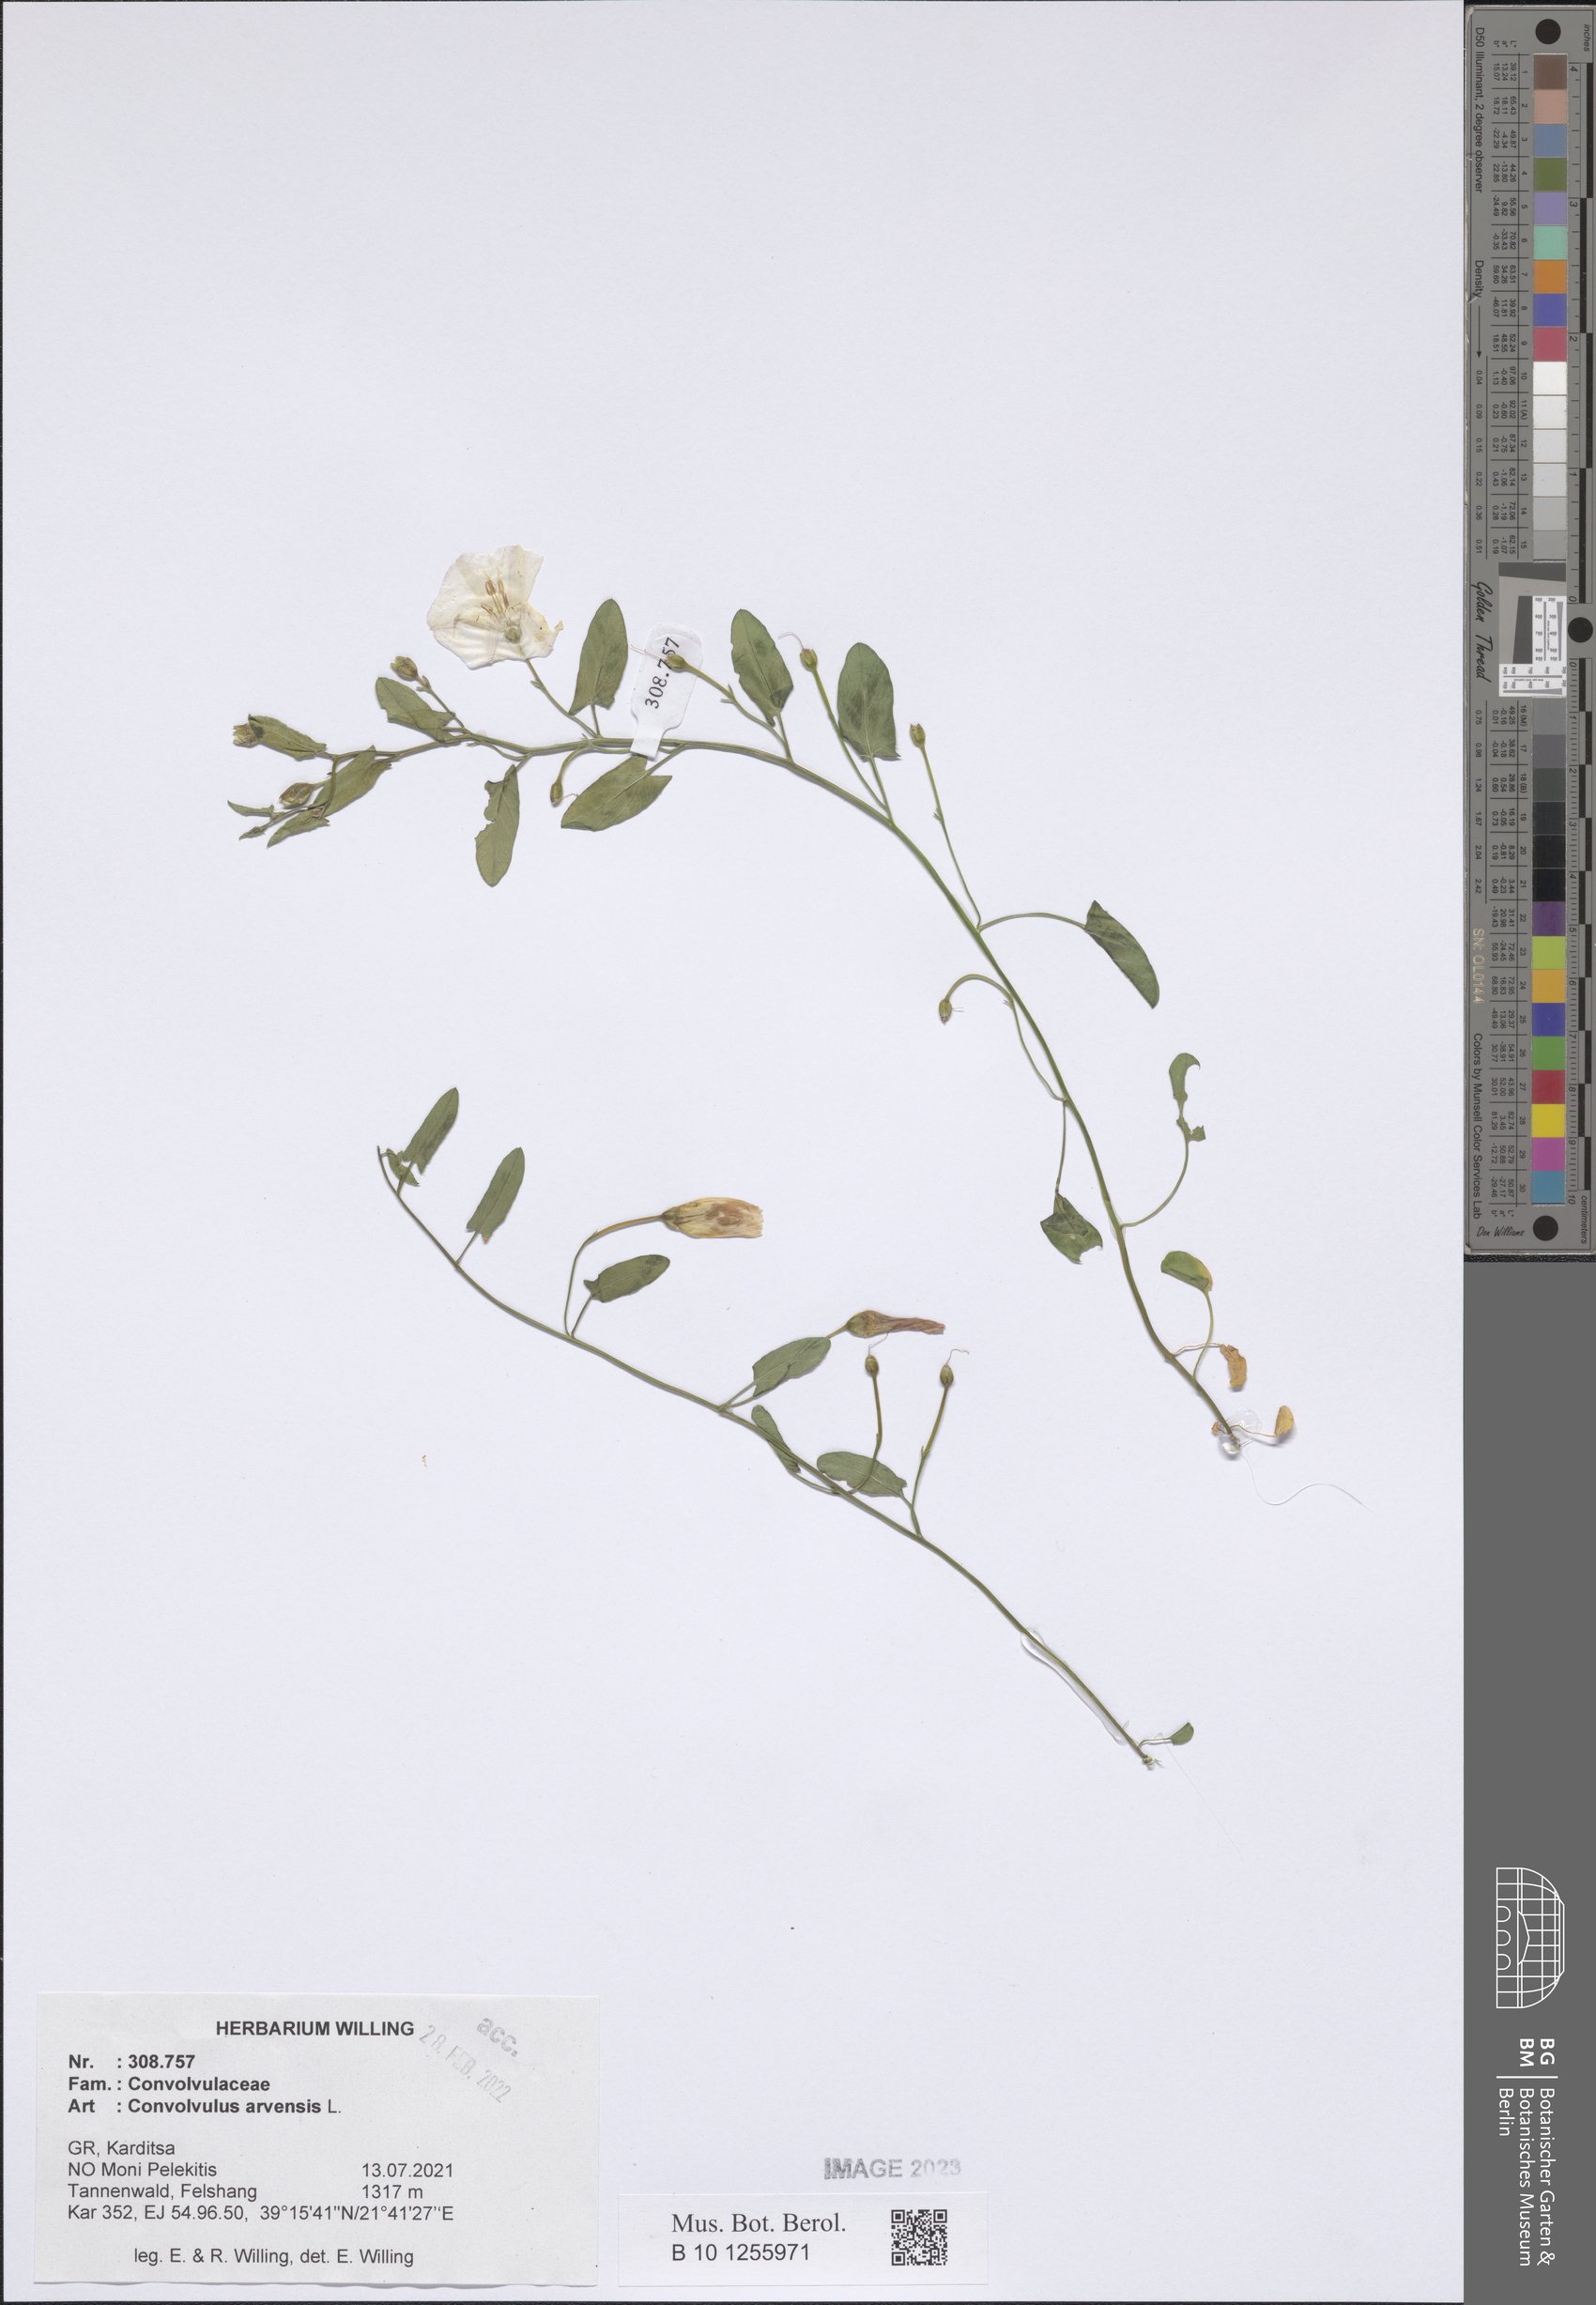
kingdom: Plantae
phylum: Tracheophyta
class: Magnoliopsida
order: Solanales
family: Convolvulaceae
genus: Convolvulus
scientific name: Convolvulus arvensis
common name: Field bindweed
